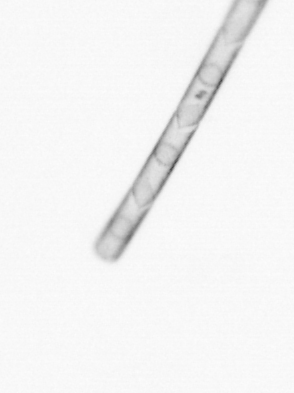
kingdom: Chromista
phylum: Ochrophyta
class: Bacillariophyceae
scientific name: Bacillariophyceae
